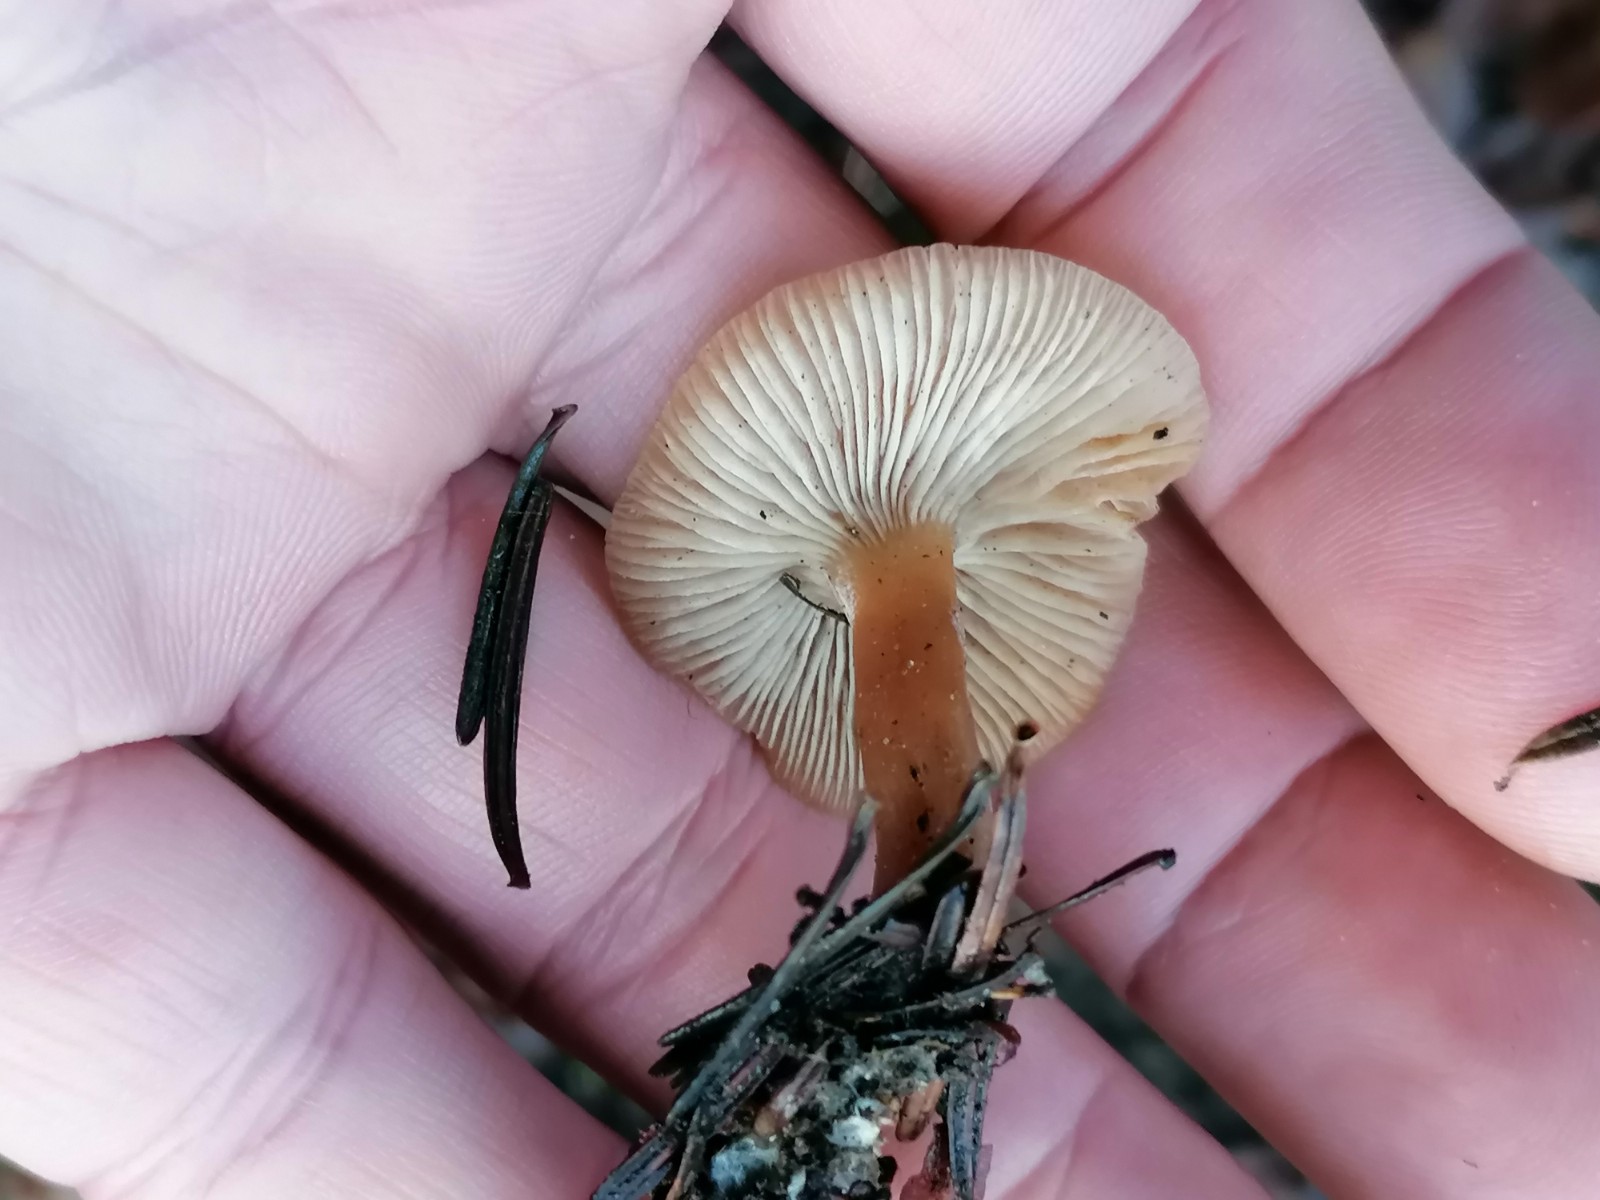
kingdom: Fungi
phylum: Basidiomycota
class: Agaricomycetes
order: Agaricales
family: Tricholomataceae
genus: Clitocybe
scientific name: Clitocybe
